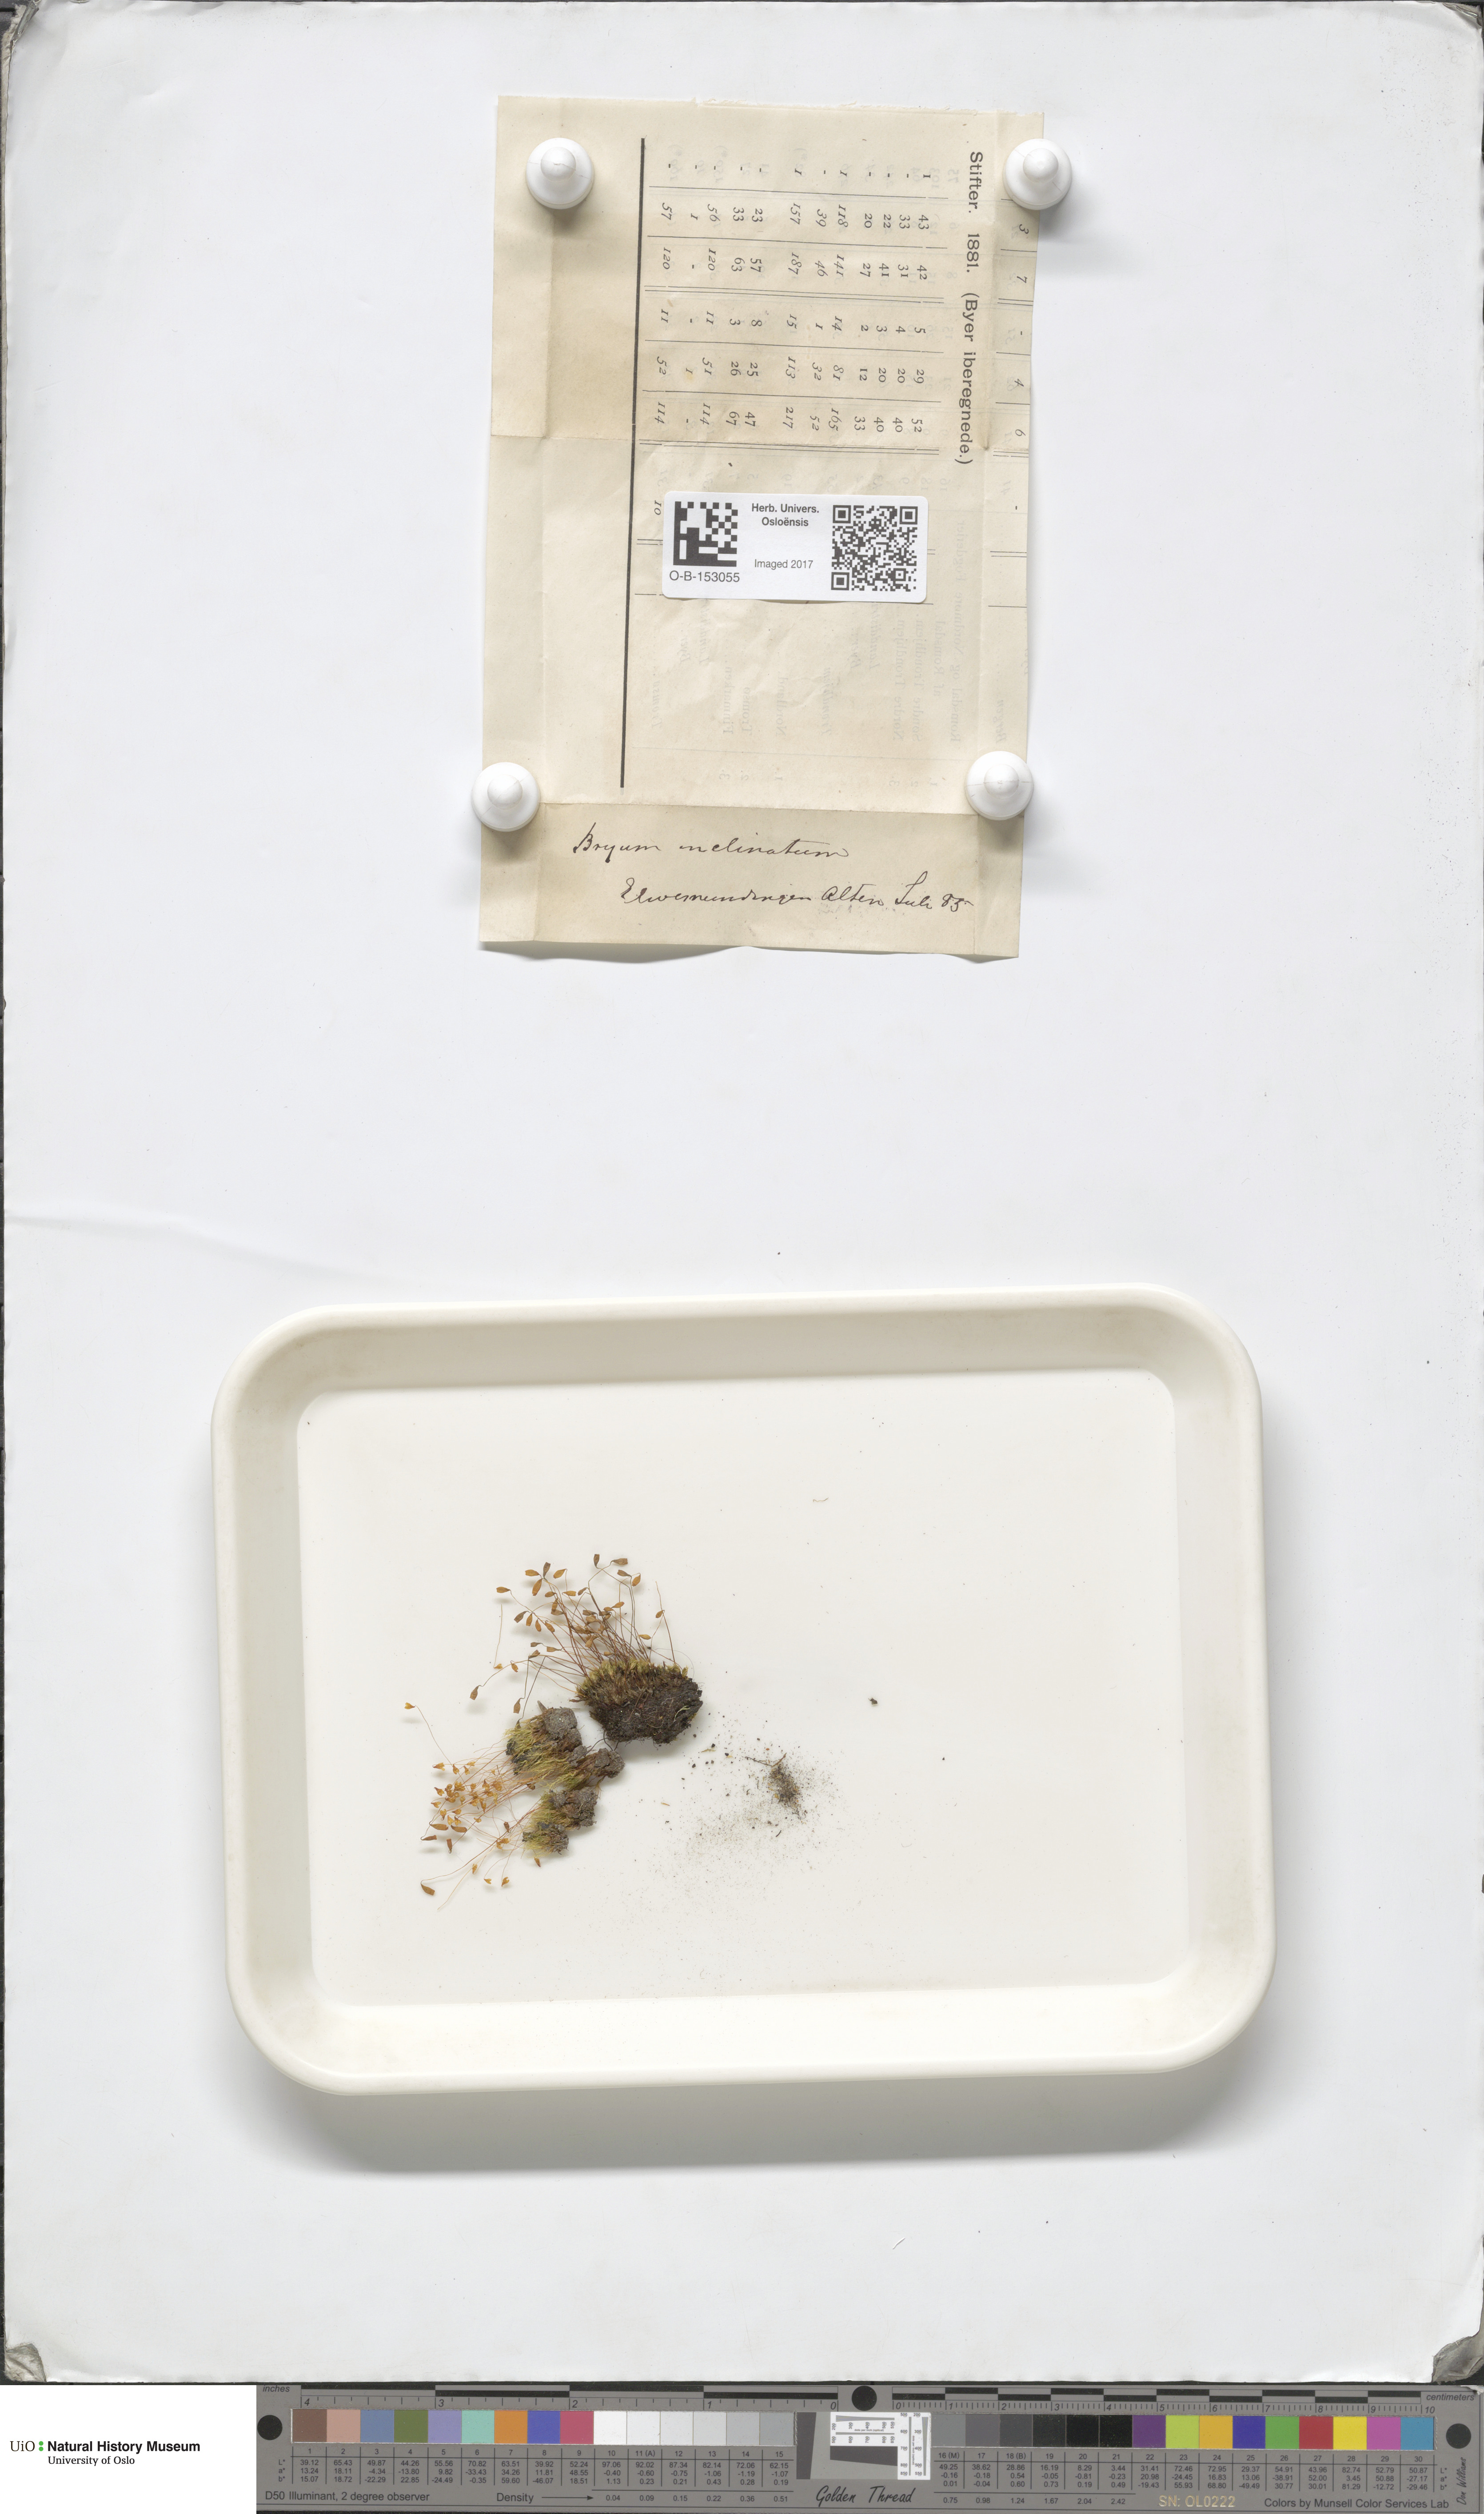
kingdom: Plantae
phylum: Bryophyta
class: Bryopsida
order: Bryales
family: Bryaceae
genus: Ptychostomum
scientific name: Ptychostomum inclinatum
